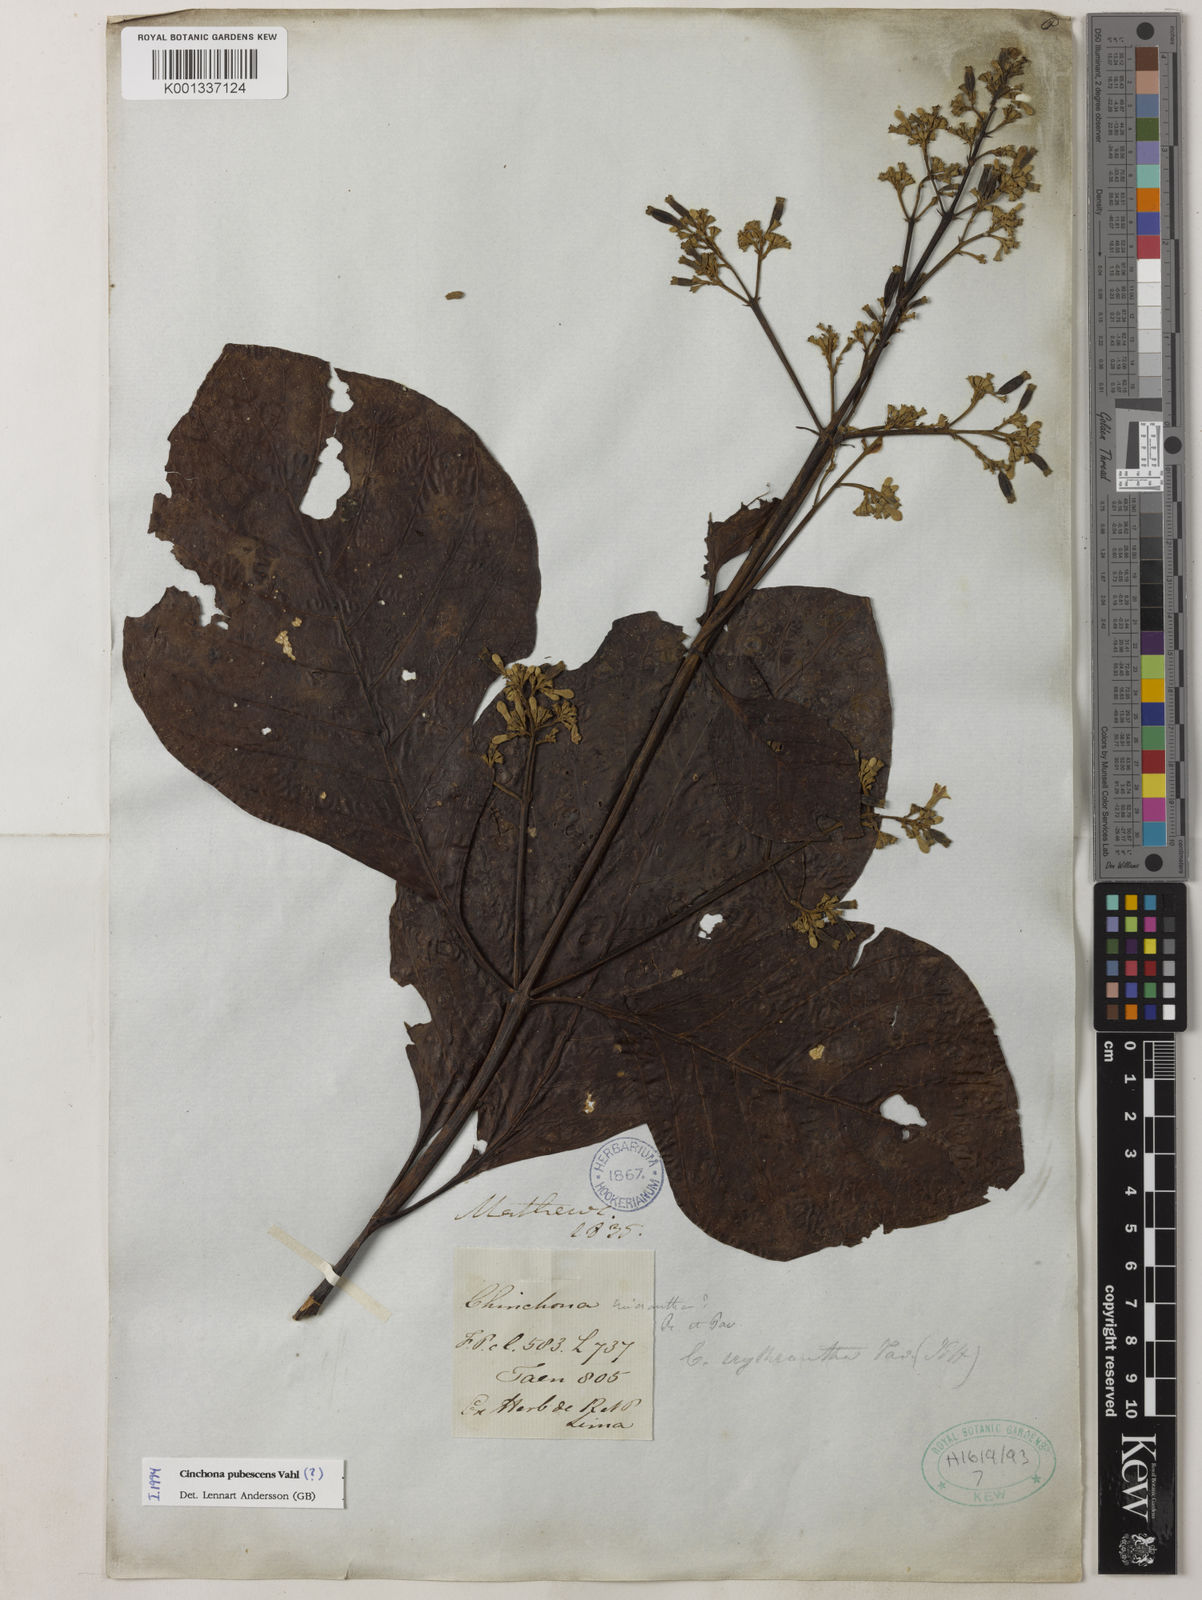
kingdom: Plantae
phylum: Tracheophyta
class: Magnoliopsida
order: Gentianales
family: Rubiaceae
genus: Cinchona
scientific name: Cinchona pubescens
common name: Quinine
